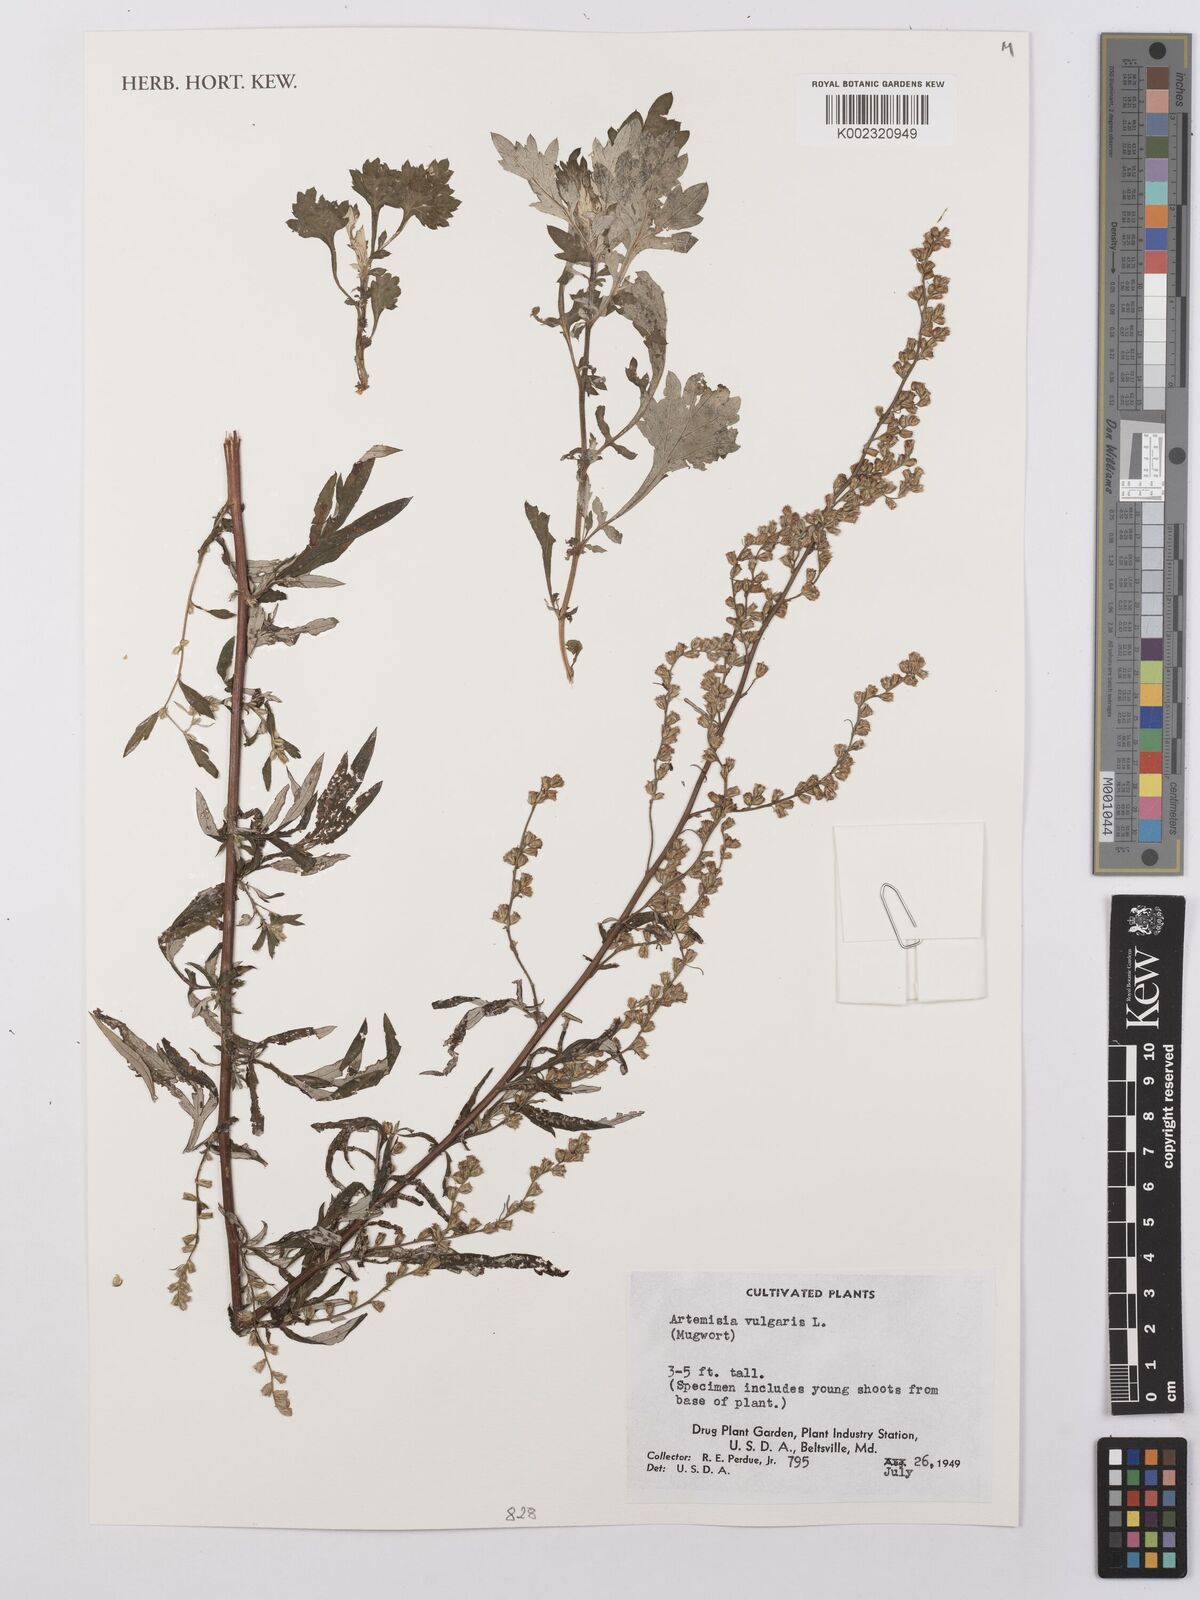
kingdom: Plantae
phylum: Tracheophyta
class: Magnoliopsida
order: Asterales
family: Asteraceae
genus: Artemisia
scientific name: Artemisia vulgaris
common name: Mugwort
